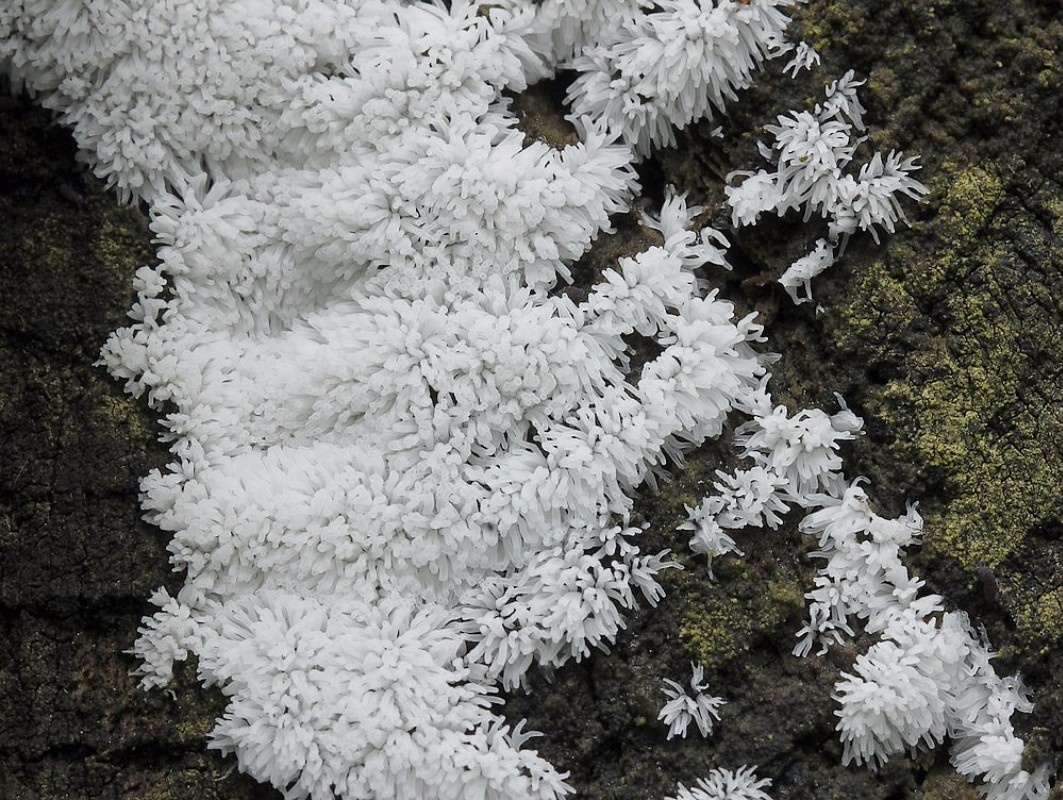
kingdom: Protozoa
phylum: Mycetozoa
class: Protosteliomycetes
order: Ceratiomyxales
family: Ceratiomyxaceae
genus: Ceratiomyxa
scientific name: Ceratiomyxa fruticulosa
